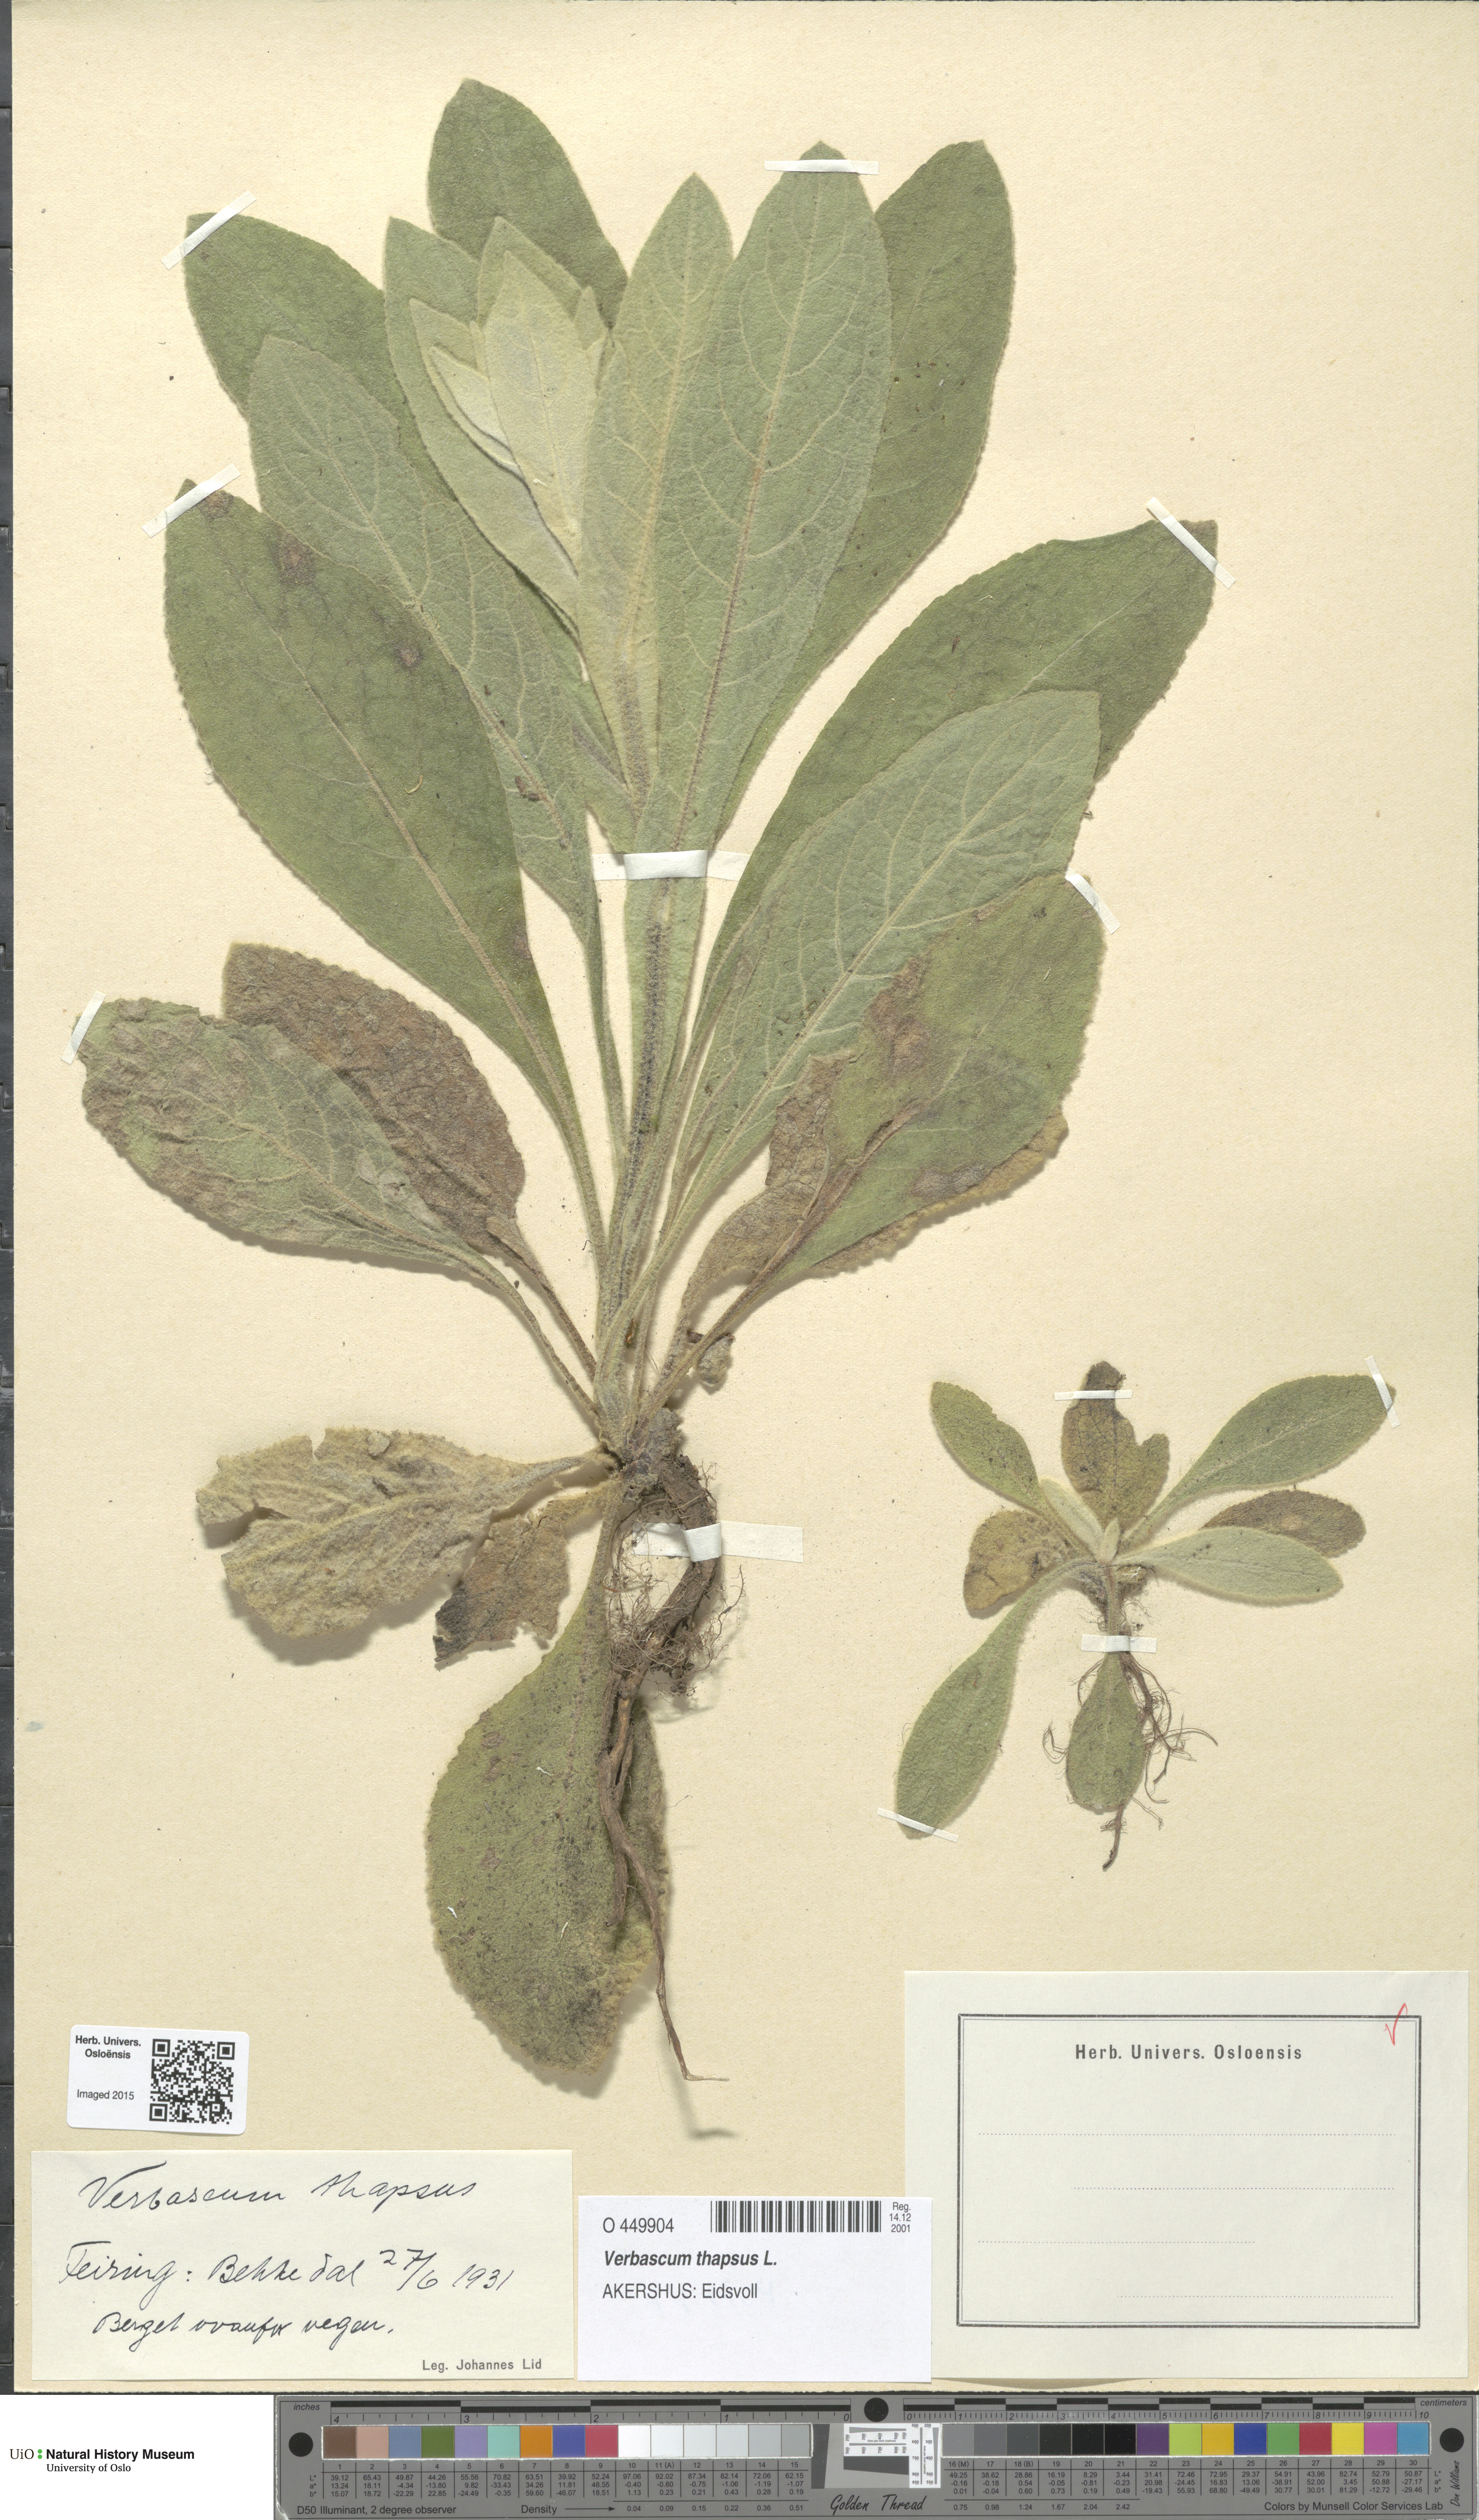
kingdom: Plantae
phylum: Tracheophyta
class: Magnoliopsida
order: Lamiales
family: Scrophulariaceae
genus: Verbascum
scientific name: Verbascum thapsus
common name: Common mullein
